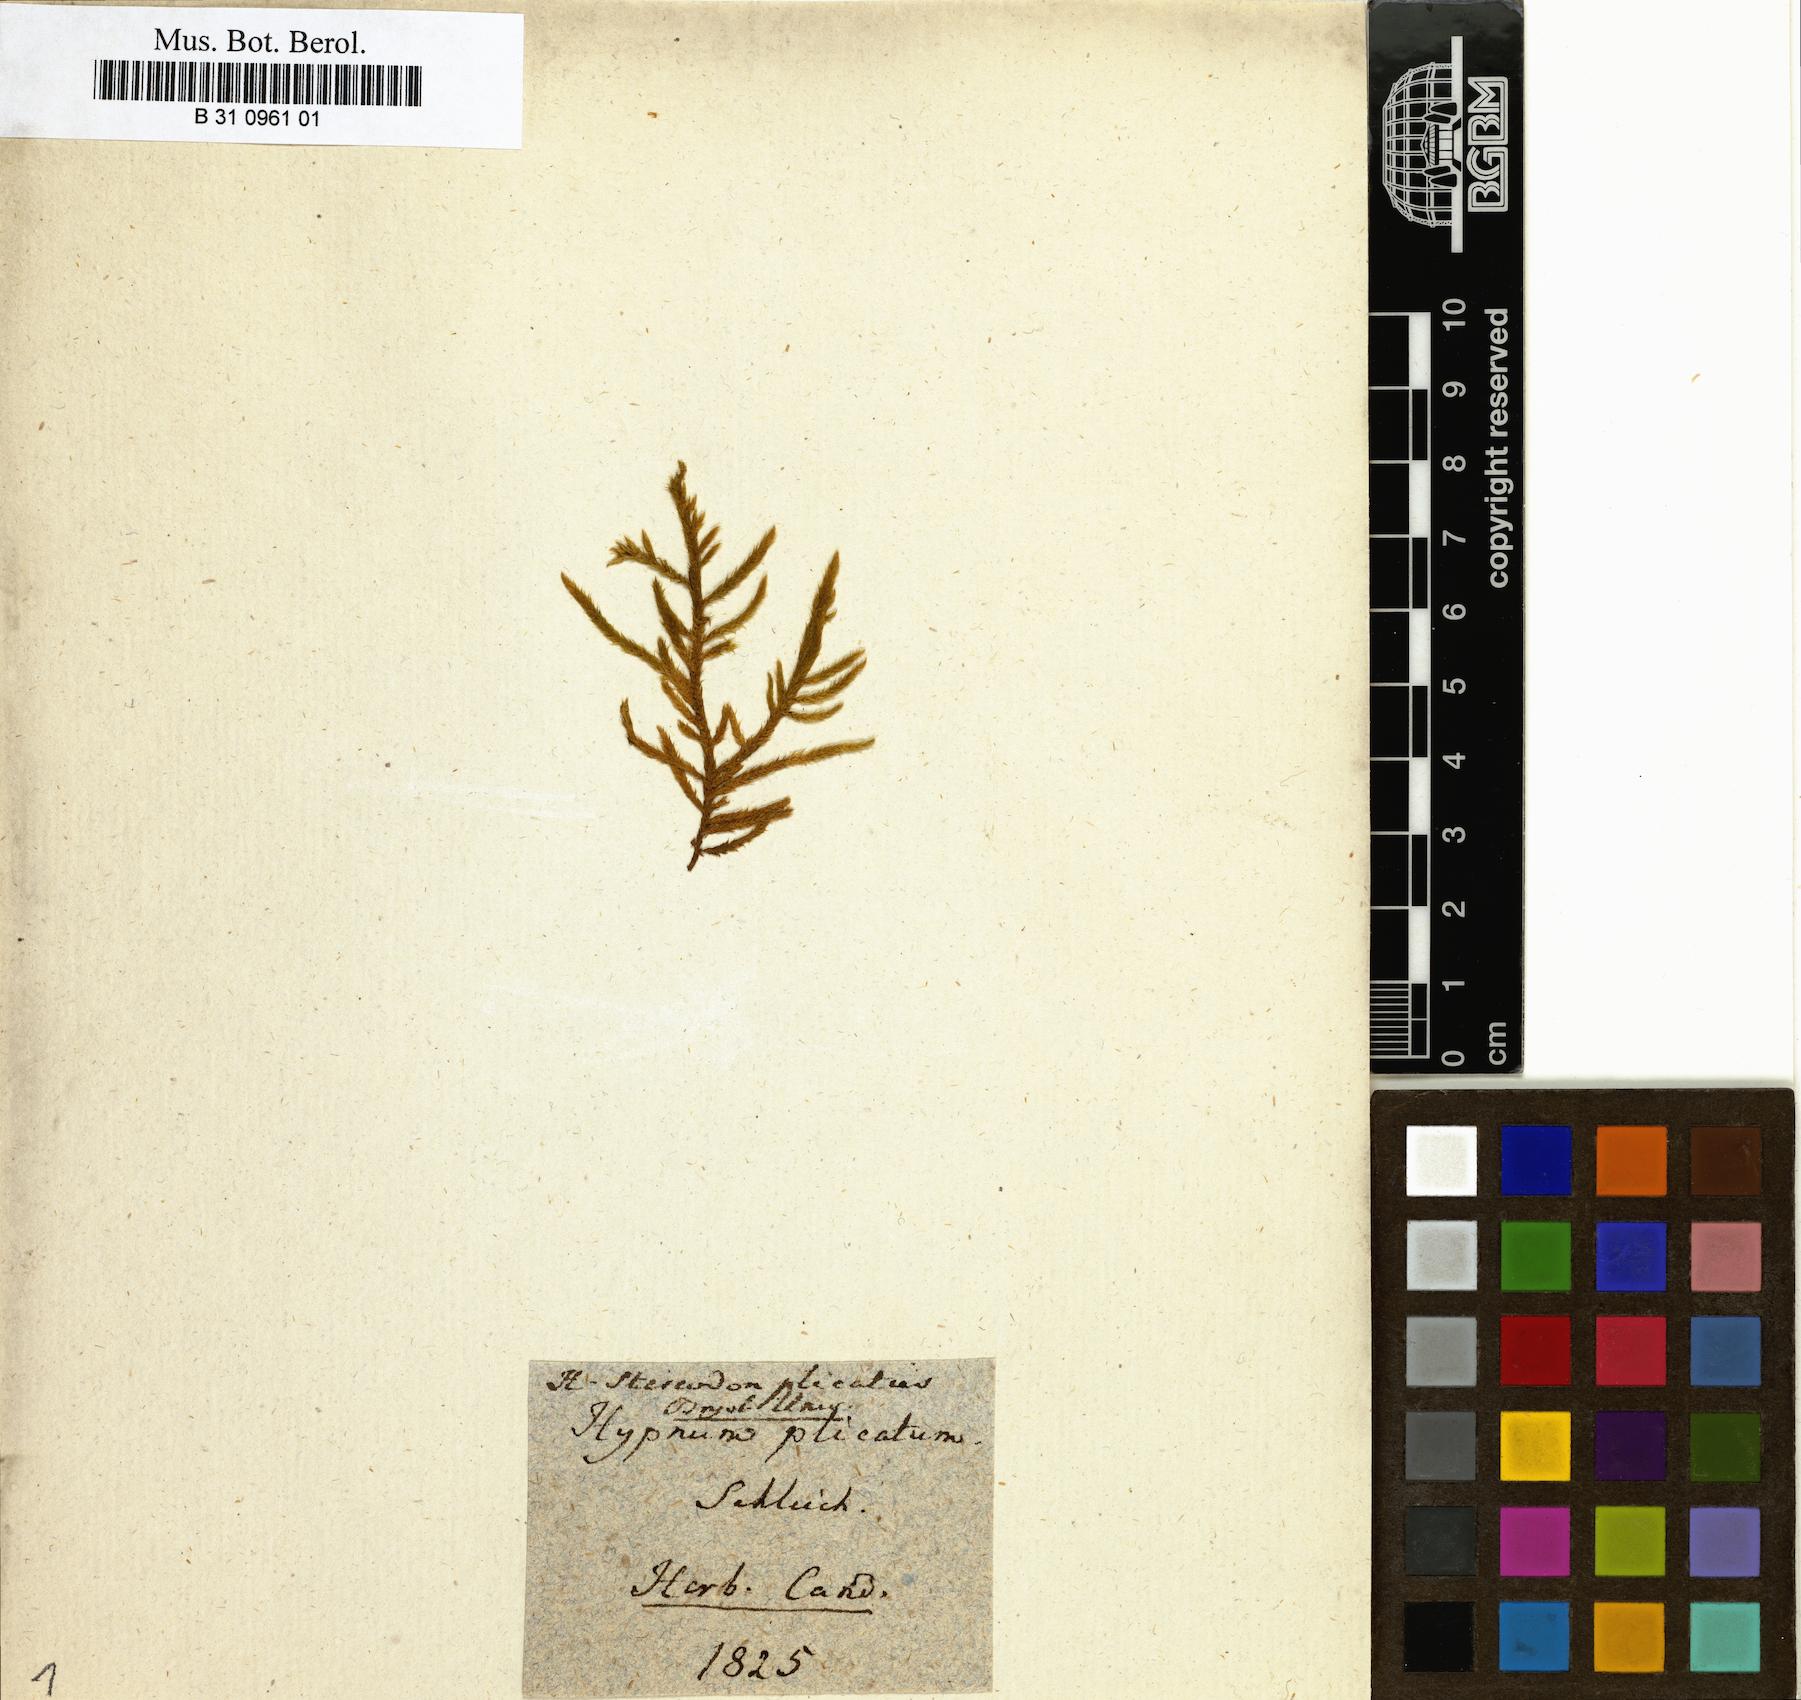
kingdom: Plantae
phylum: Bryophyta
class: Bryopsida
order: Hypnales
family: Entodontaceae
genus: Entodon
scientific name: Entodon plicatus
